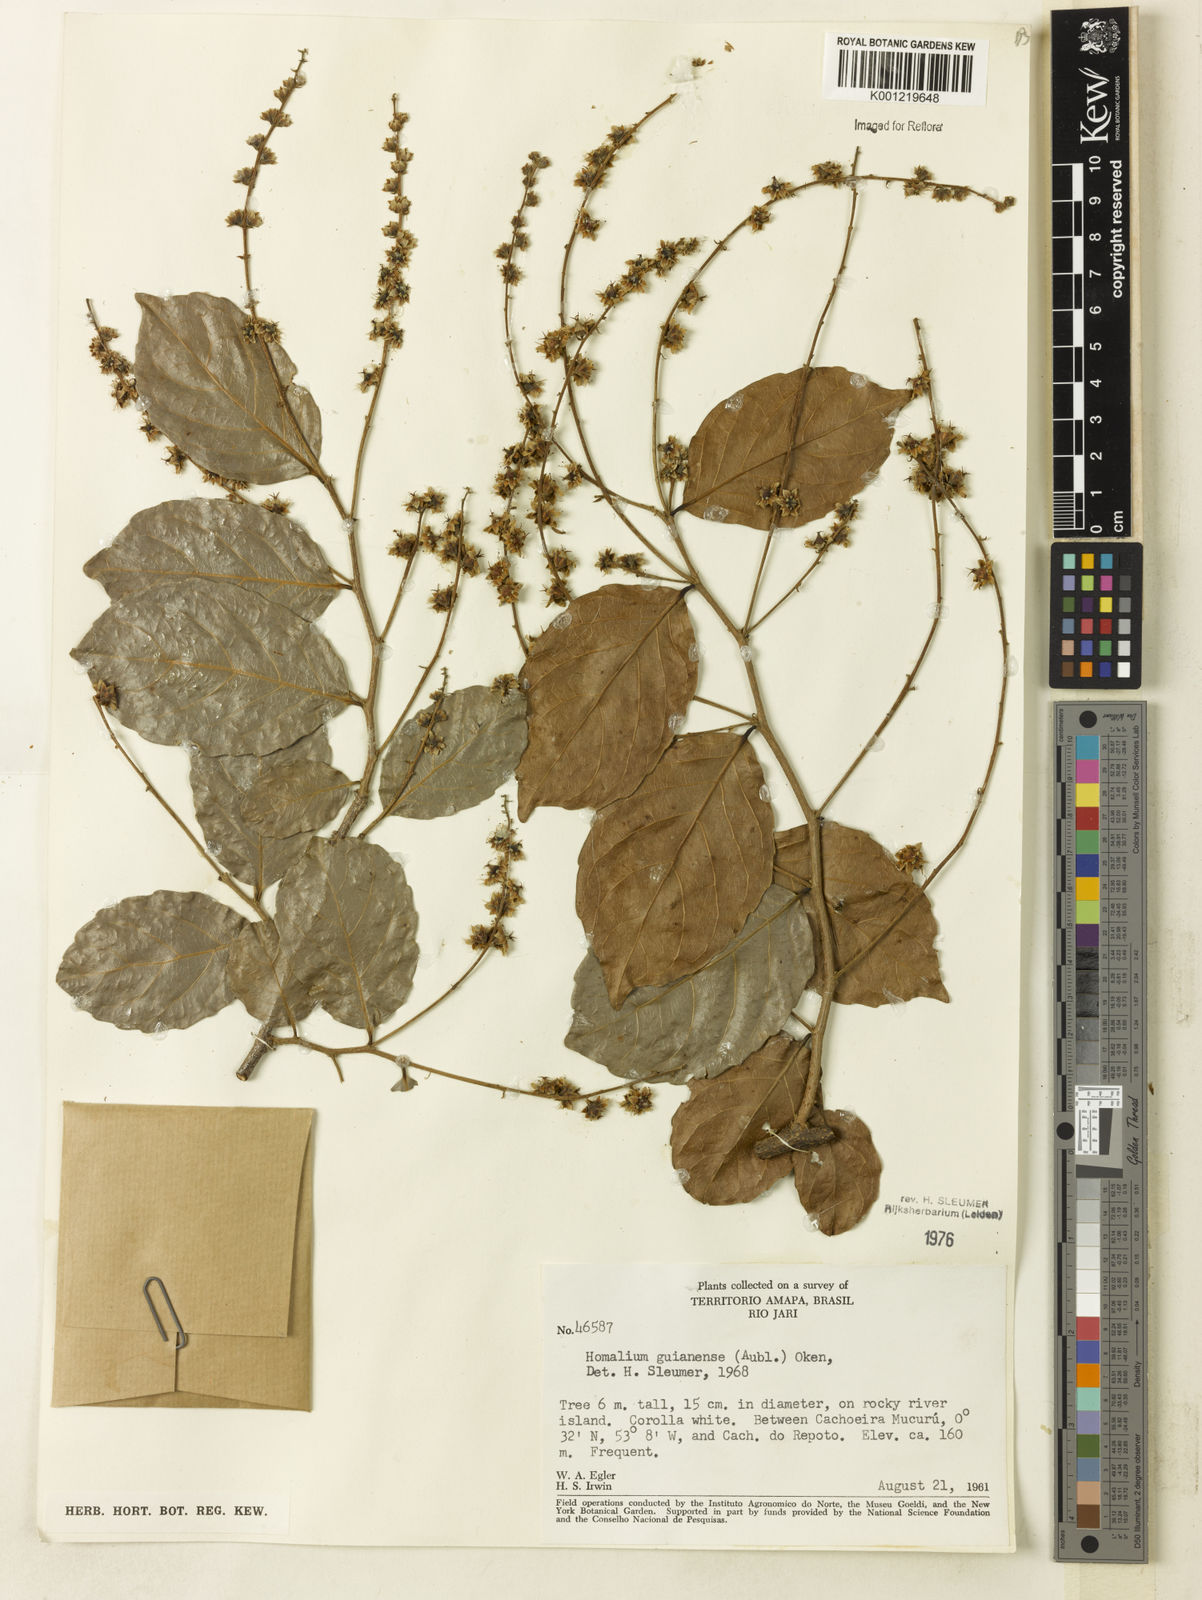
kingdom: Plantae
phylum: Tracheophyta
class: Magnoliopsida
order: Malpighiales
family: Salicaceae
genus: Homalium
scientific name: Homalium guianense
